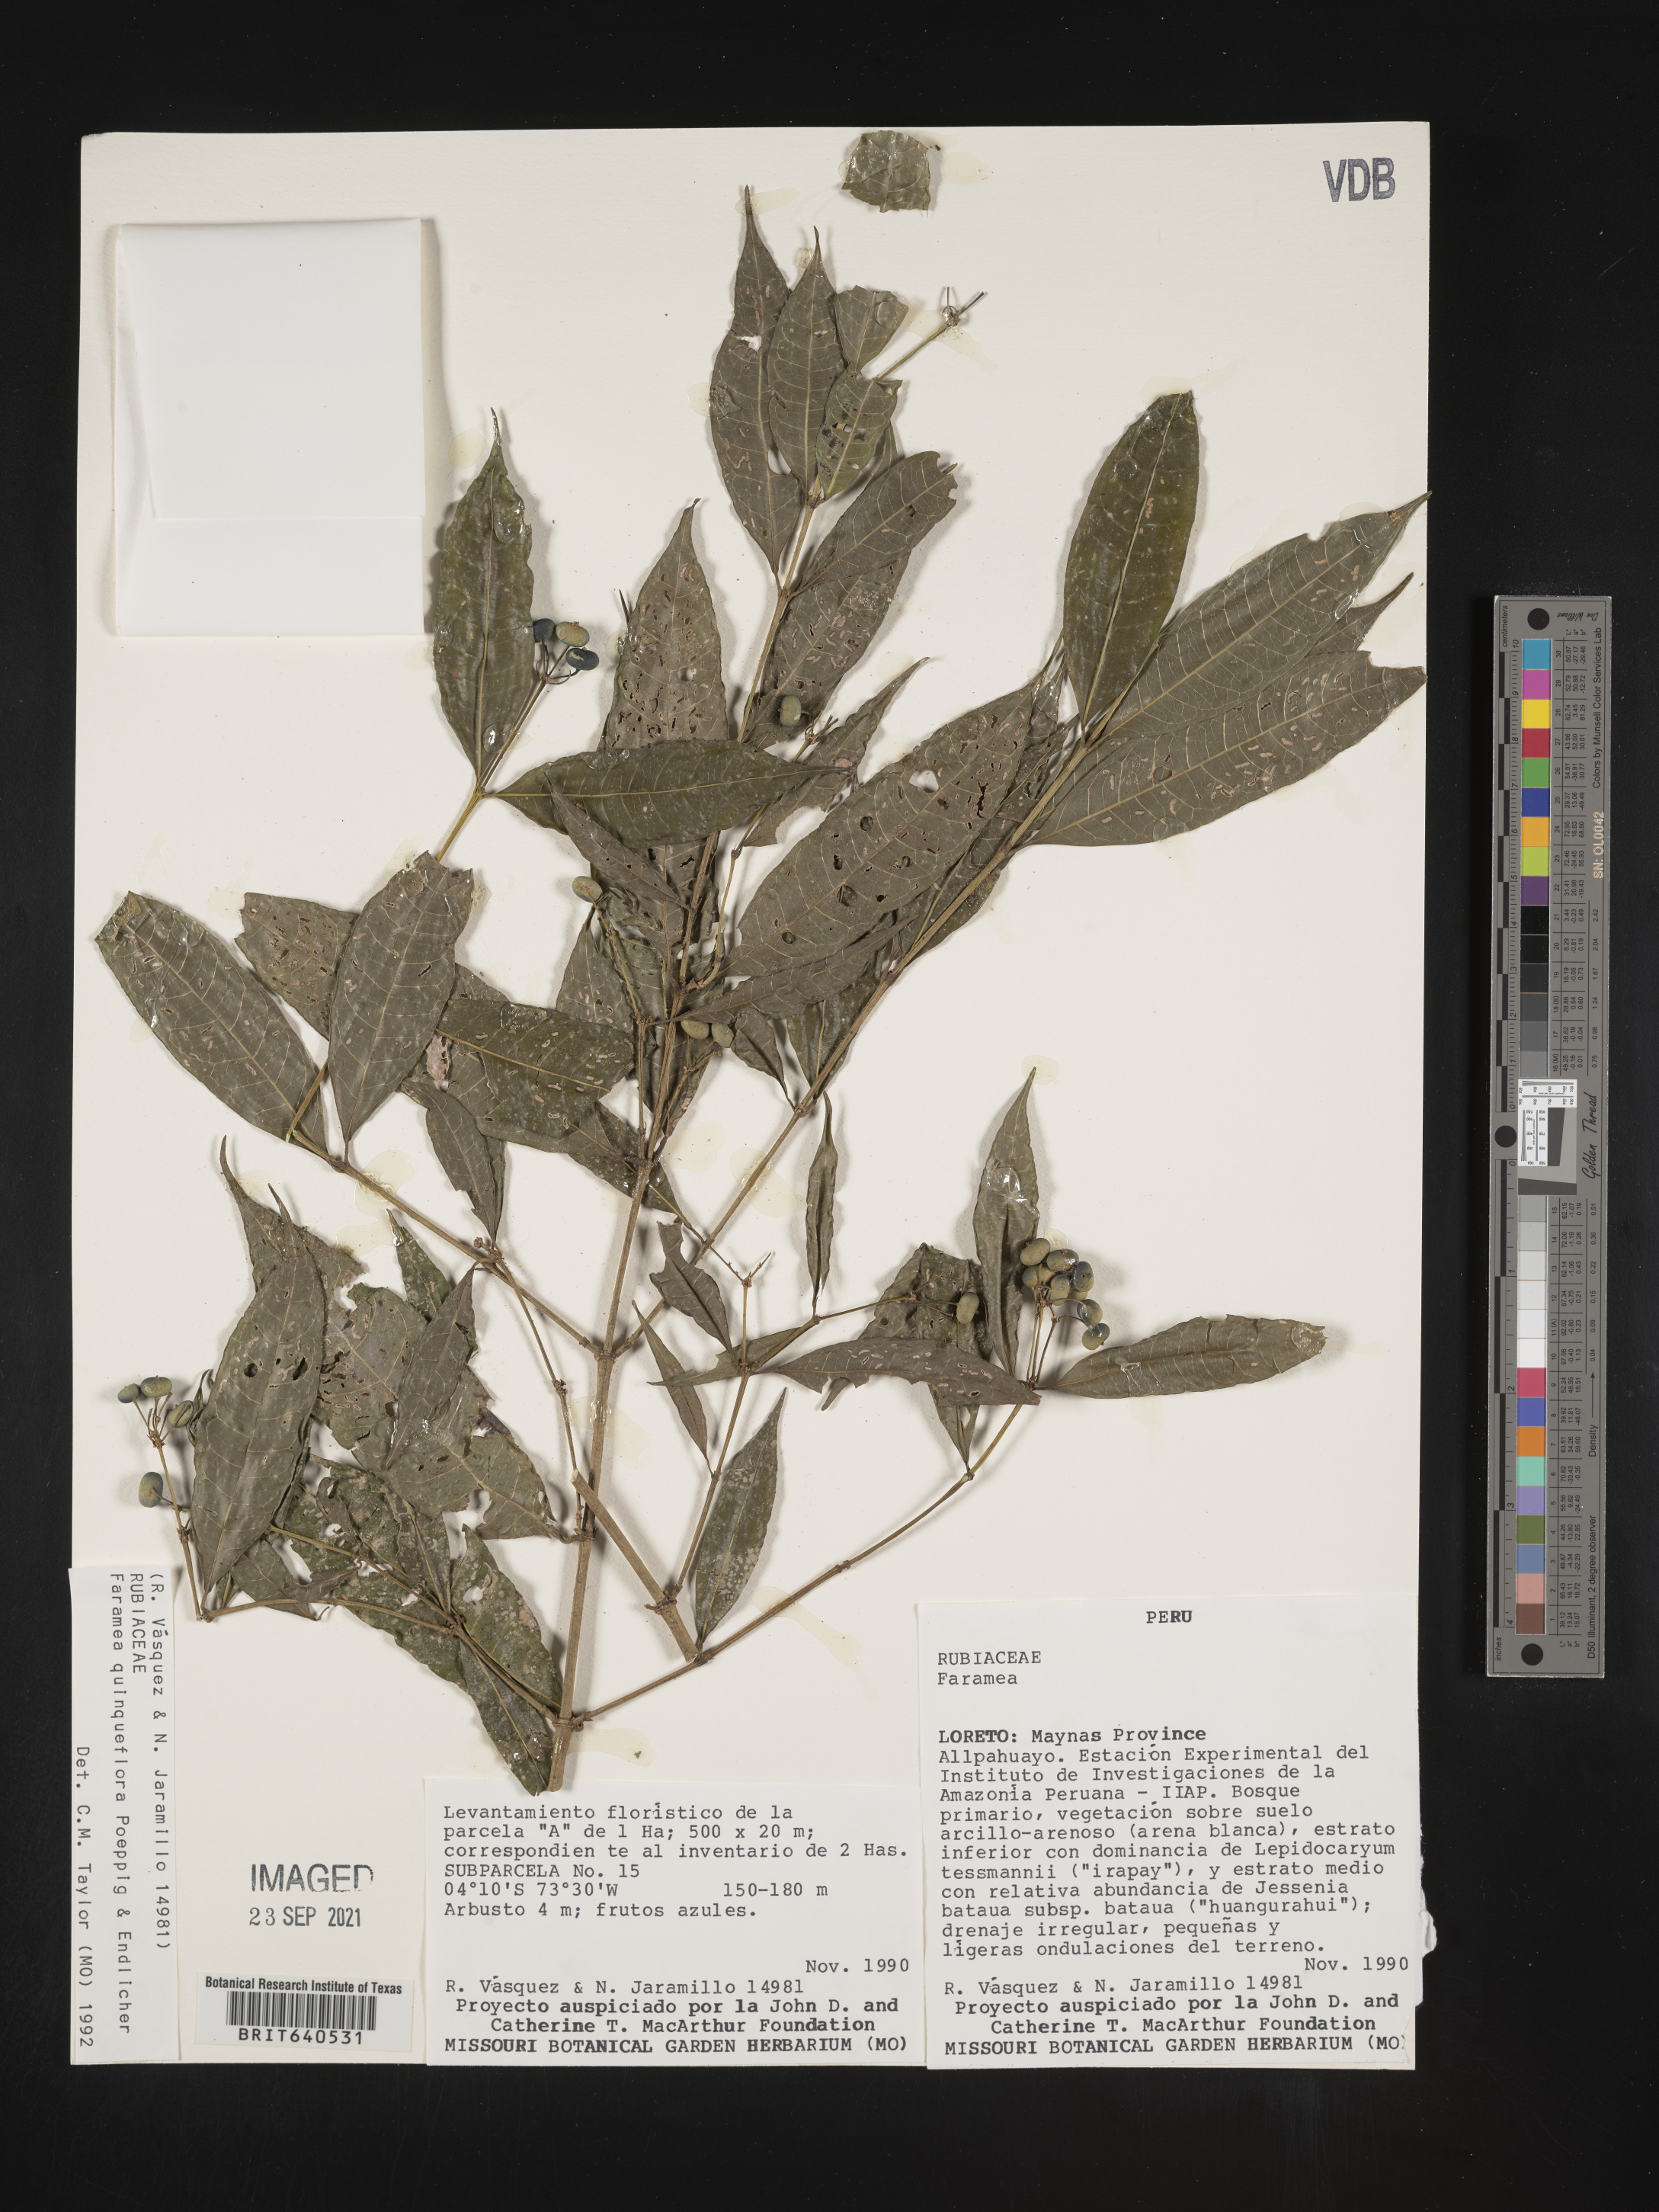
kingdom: Plantae
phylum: Tracheophyta
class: Magnoliopsida
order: Gentianales
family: Rubiaceae
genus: Faramea
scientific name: Faramea
